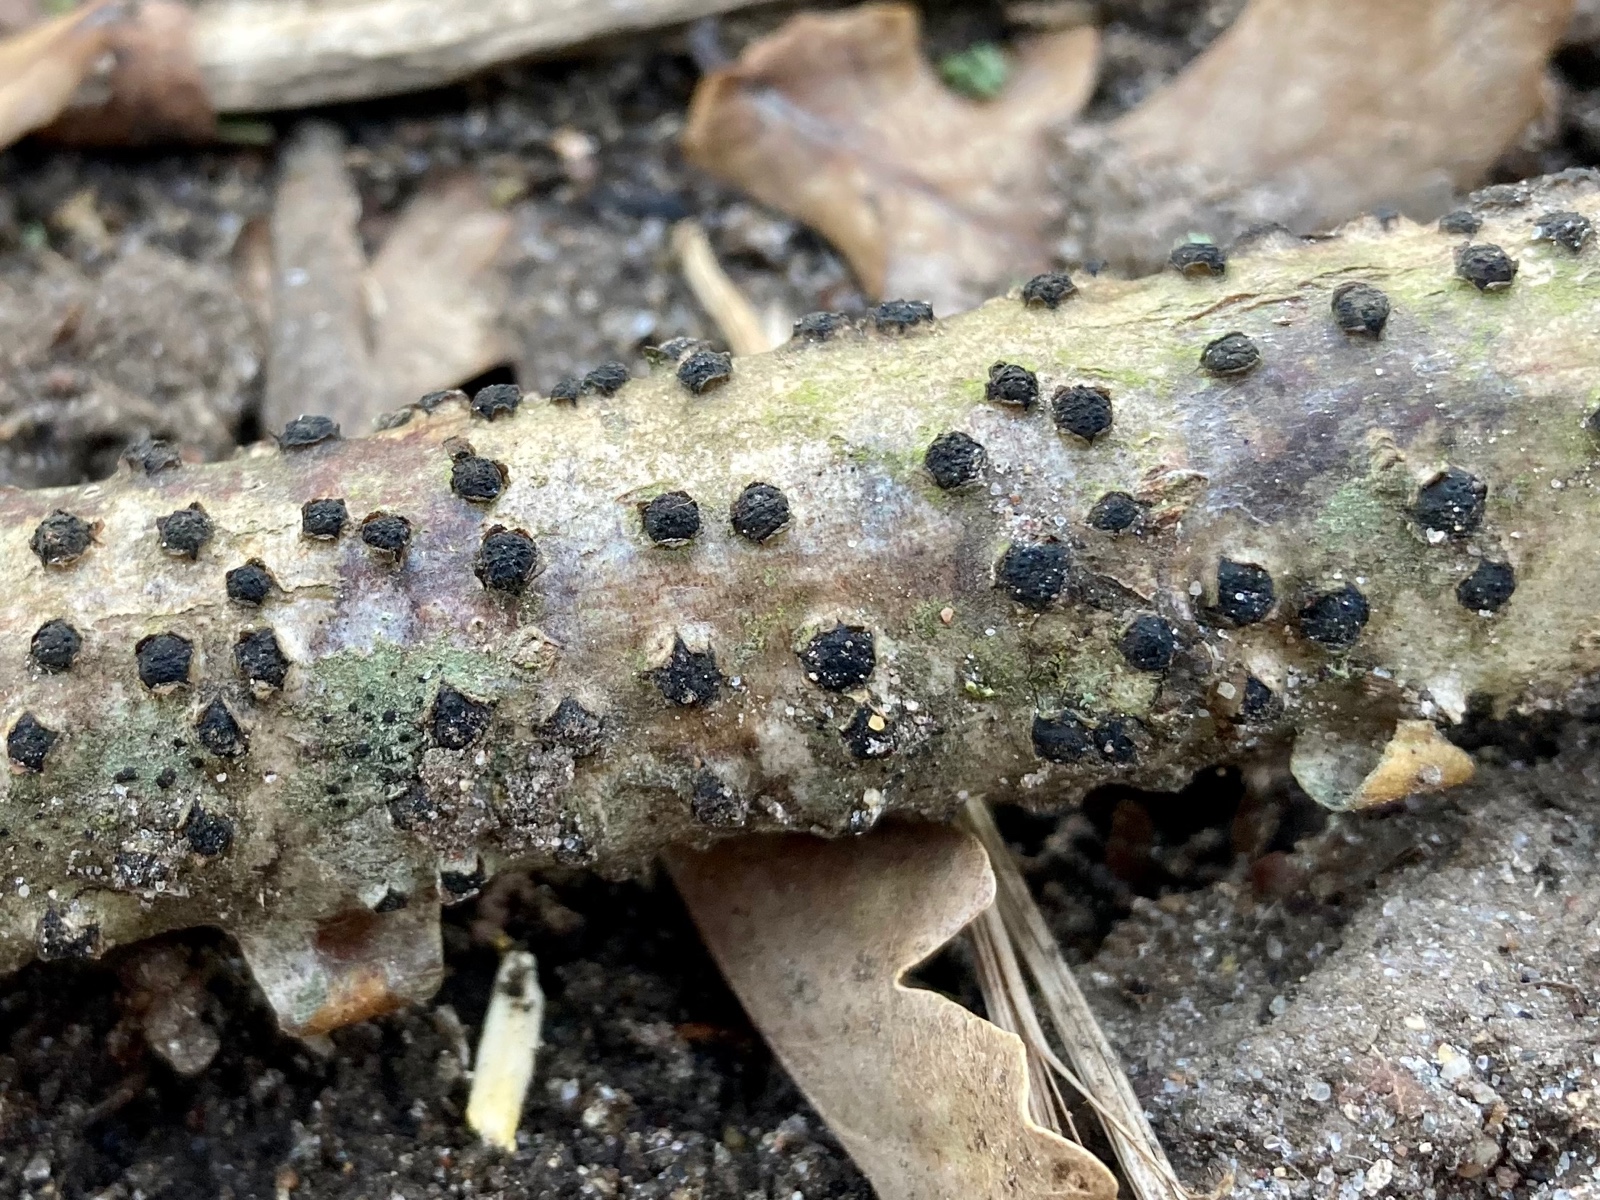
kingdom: Fungi
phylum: Ascomycota
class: Sordariomycetes
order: Xylariales
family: Diatrypaceae
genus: Diatrypella
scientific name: Diatrypella quercina
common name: ege-kulskorpe
